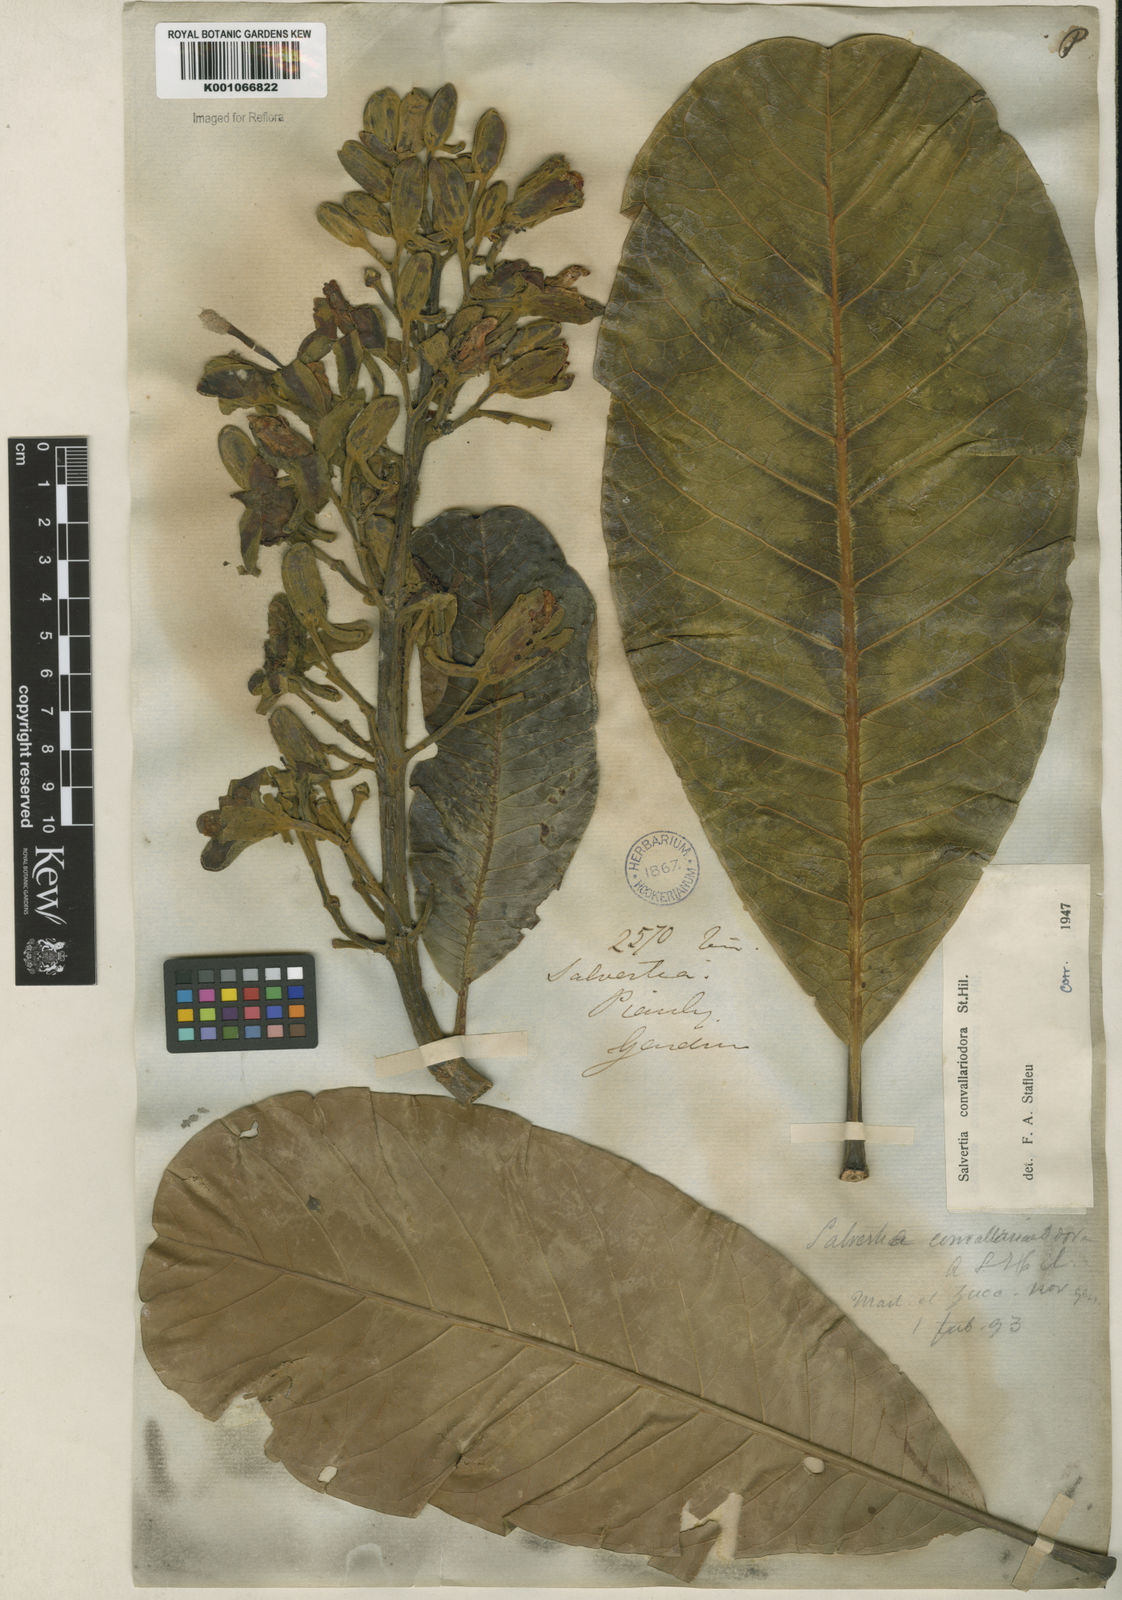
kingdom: Plantae
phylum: Tracheophyta
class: Magnoliopsida
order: Myrtales
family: Vochysiaceae
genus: Salvertia
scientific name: Salvertia convallariodora
